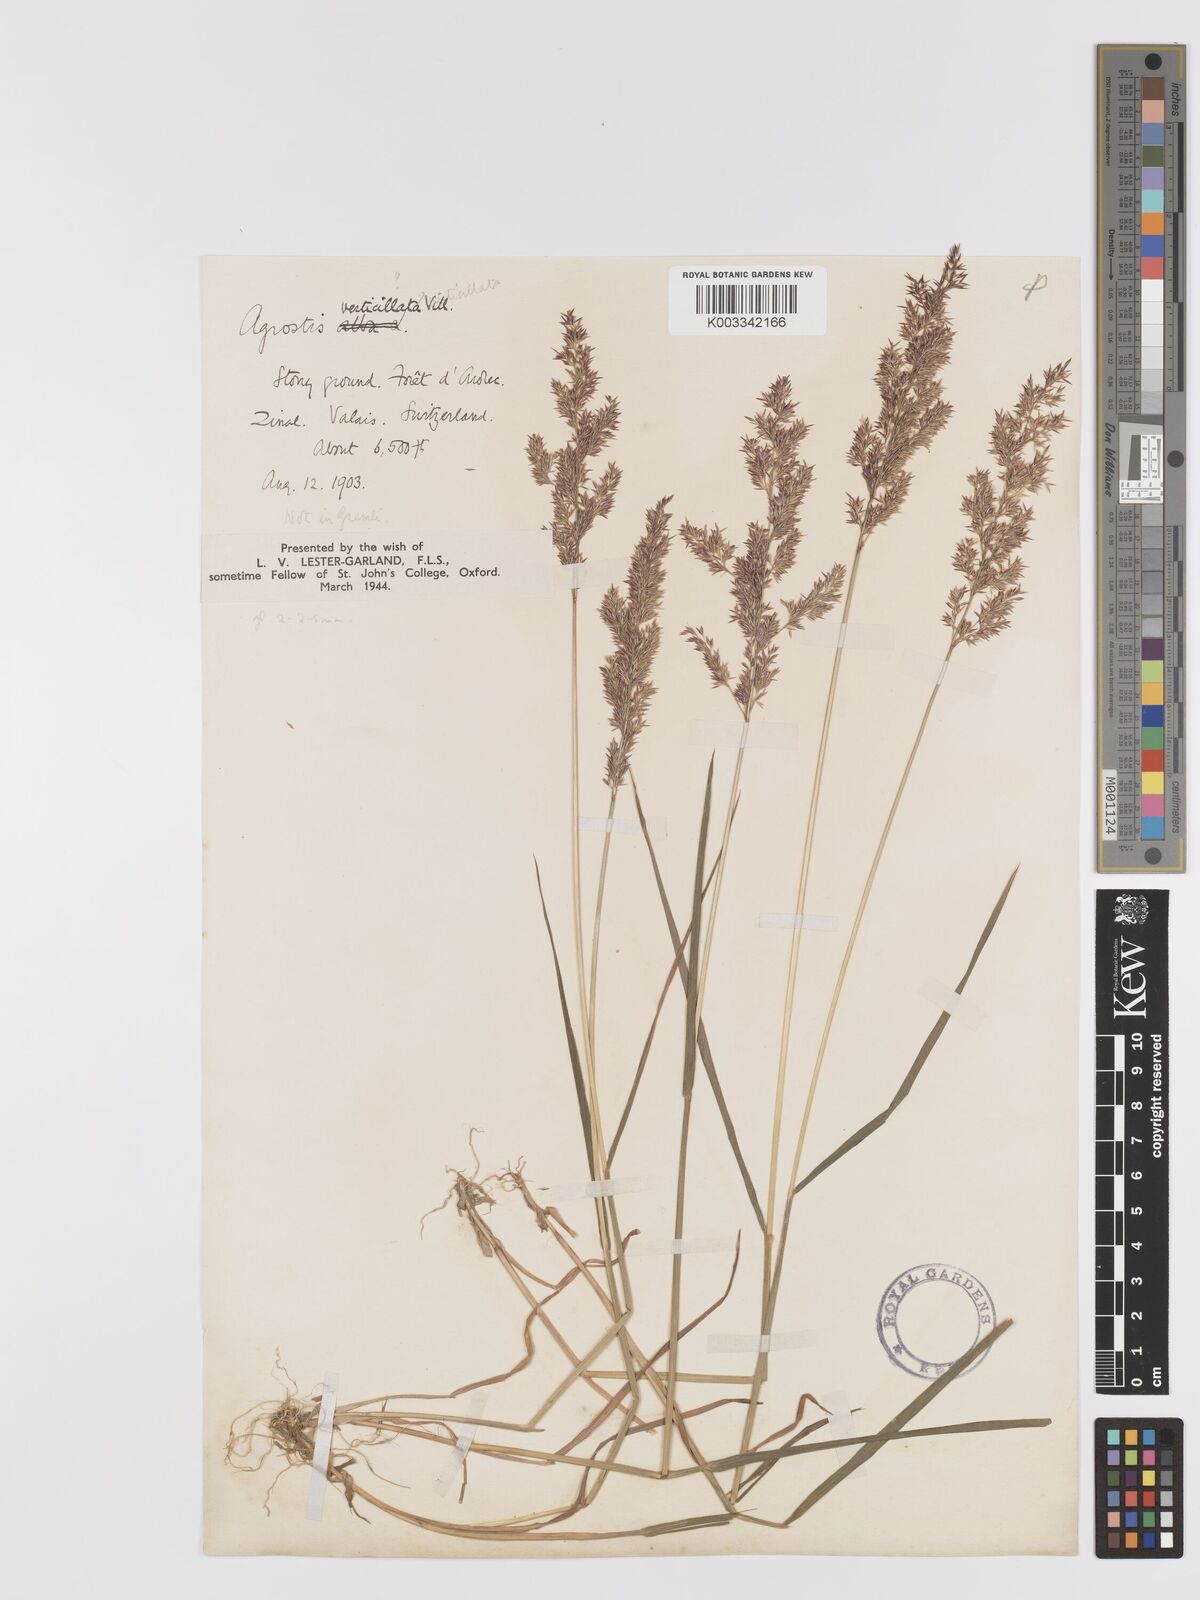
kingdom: Plantae
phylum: Tracheophyta
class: Liliopsida
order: Poales
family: Poaceae
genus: Agrostis
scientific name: Agrostis stolonifera
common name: Creeping bentgrass
